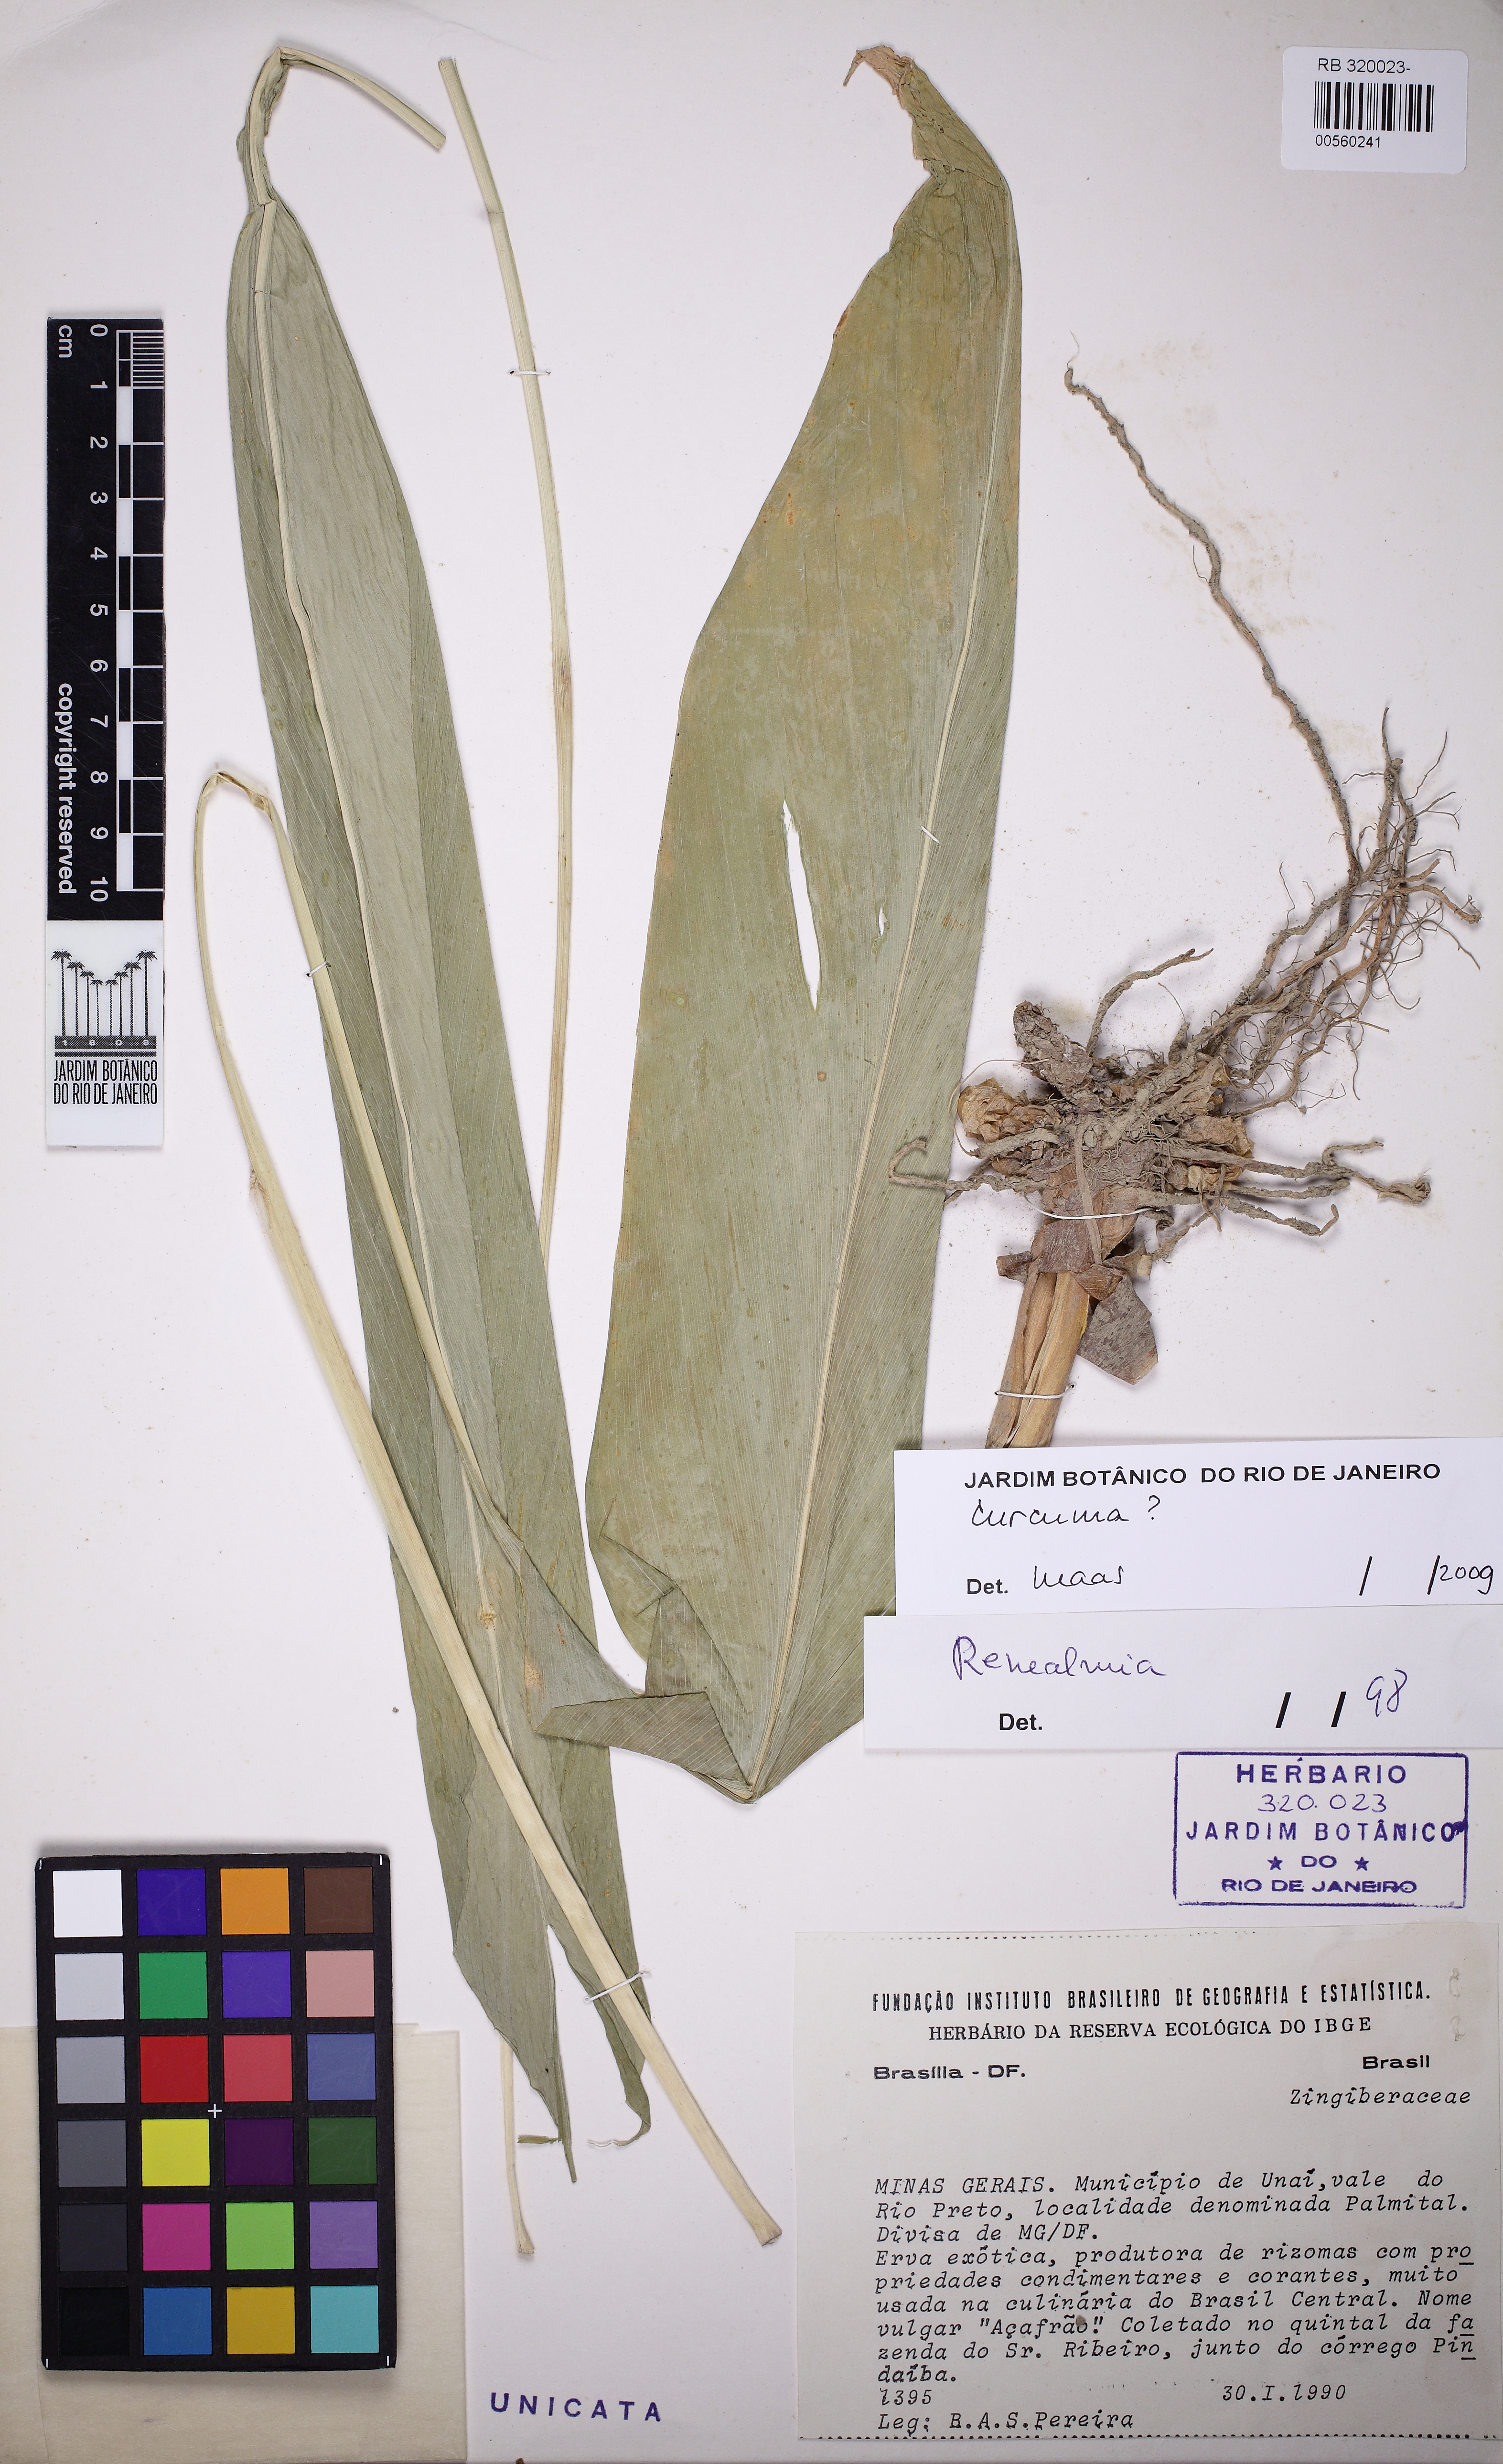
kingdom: Plantae
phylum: Tracheophyta
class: Liliopsida
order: Zingiberales
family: Zingiberaceae
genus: Curcuma
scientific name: Curcuma
